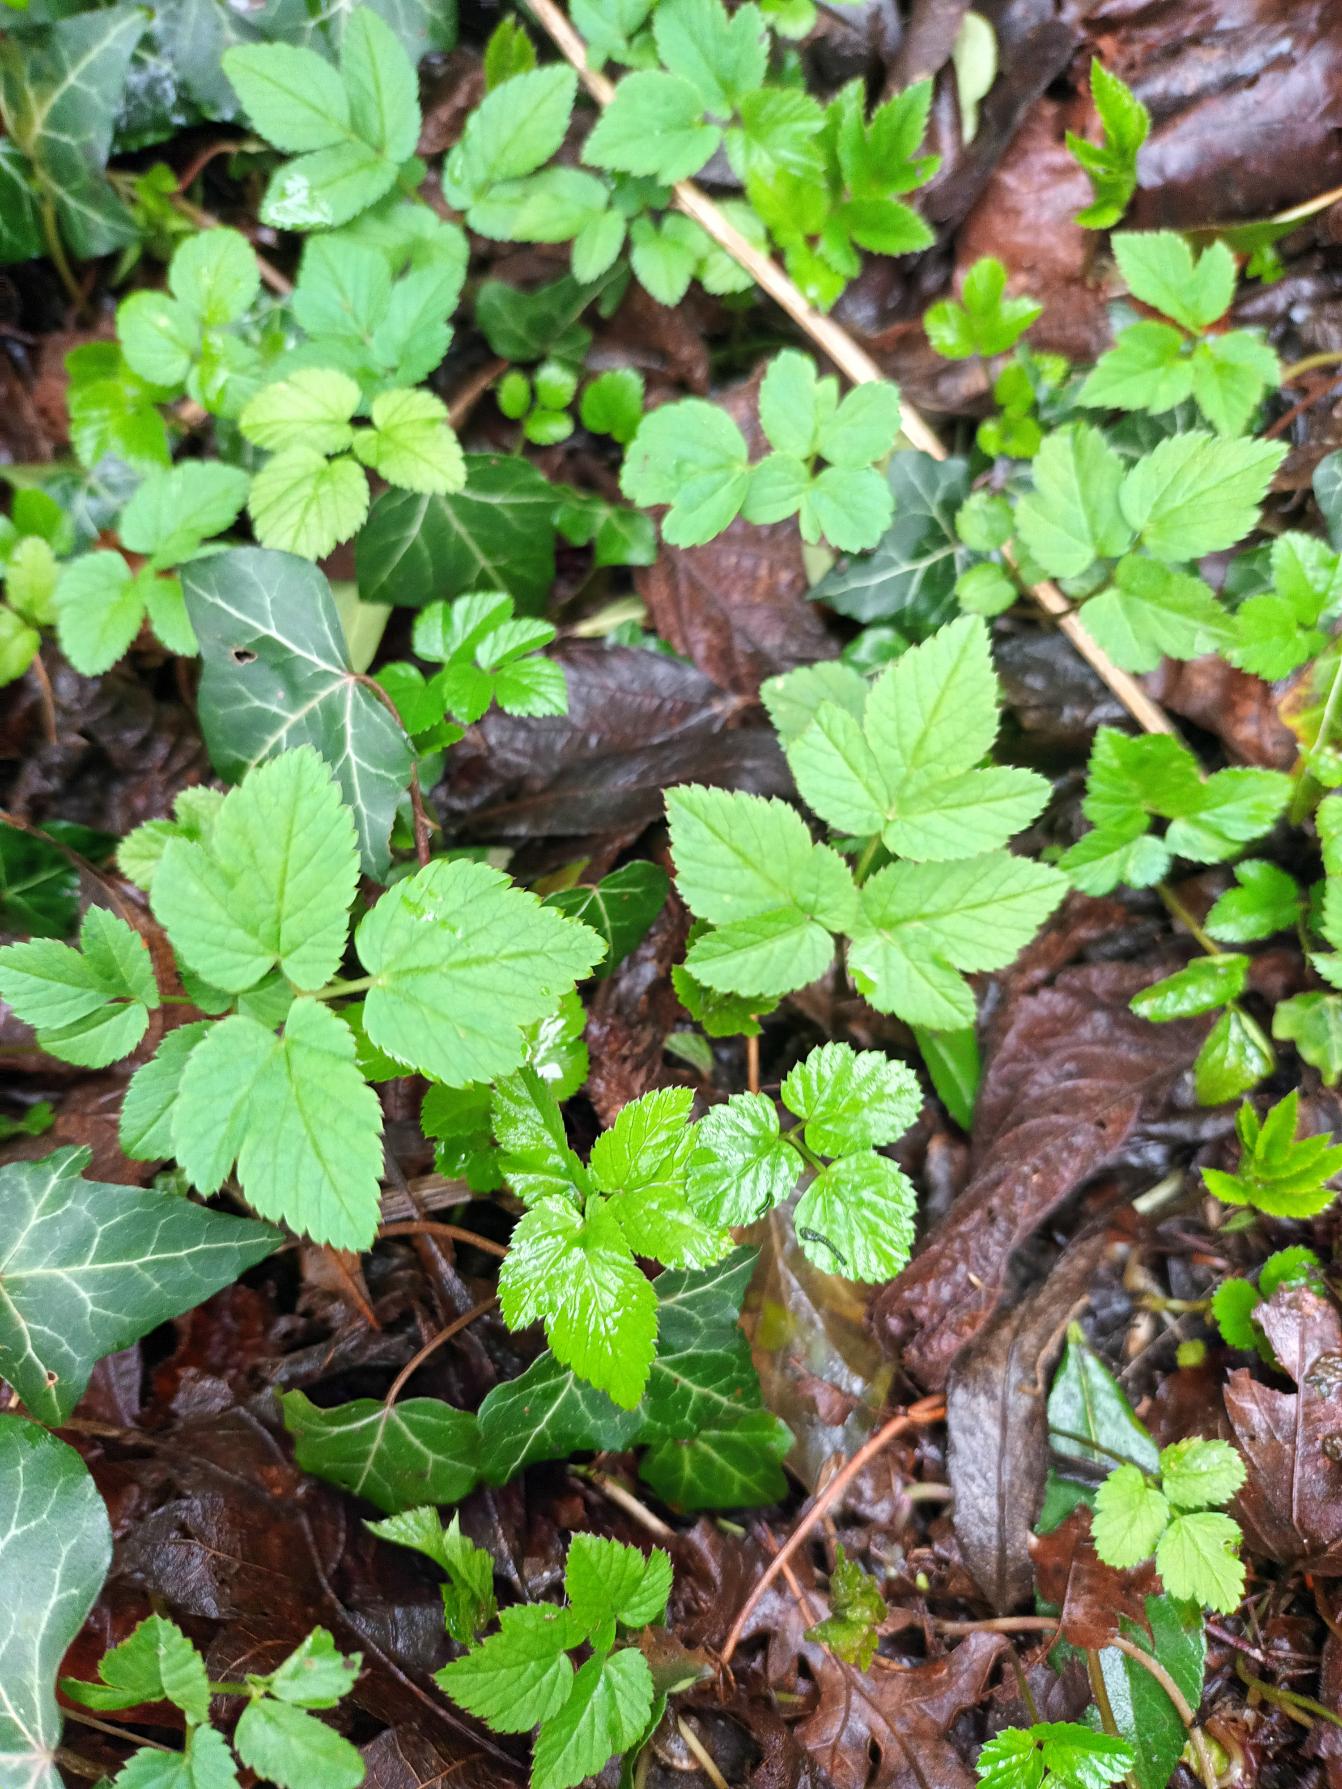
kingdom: Plantae
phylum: Tracheophyta
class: Magnoliopsida
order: Apiales
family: Apiaceae
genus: Aegopodium
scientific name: Aegopodium podagraria
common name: Skvalderkål
